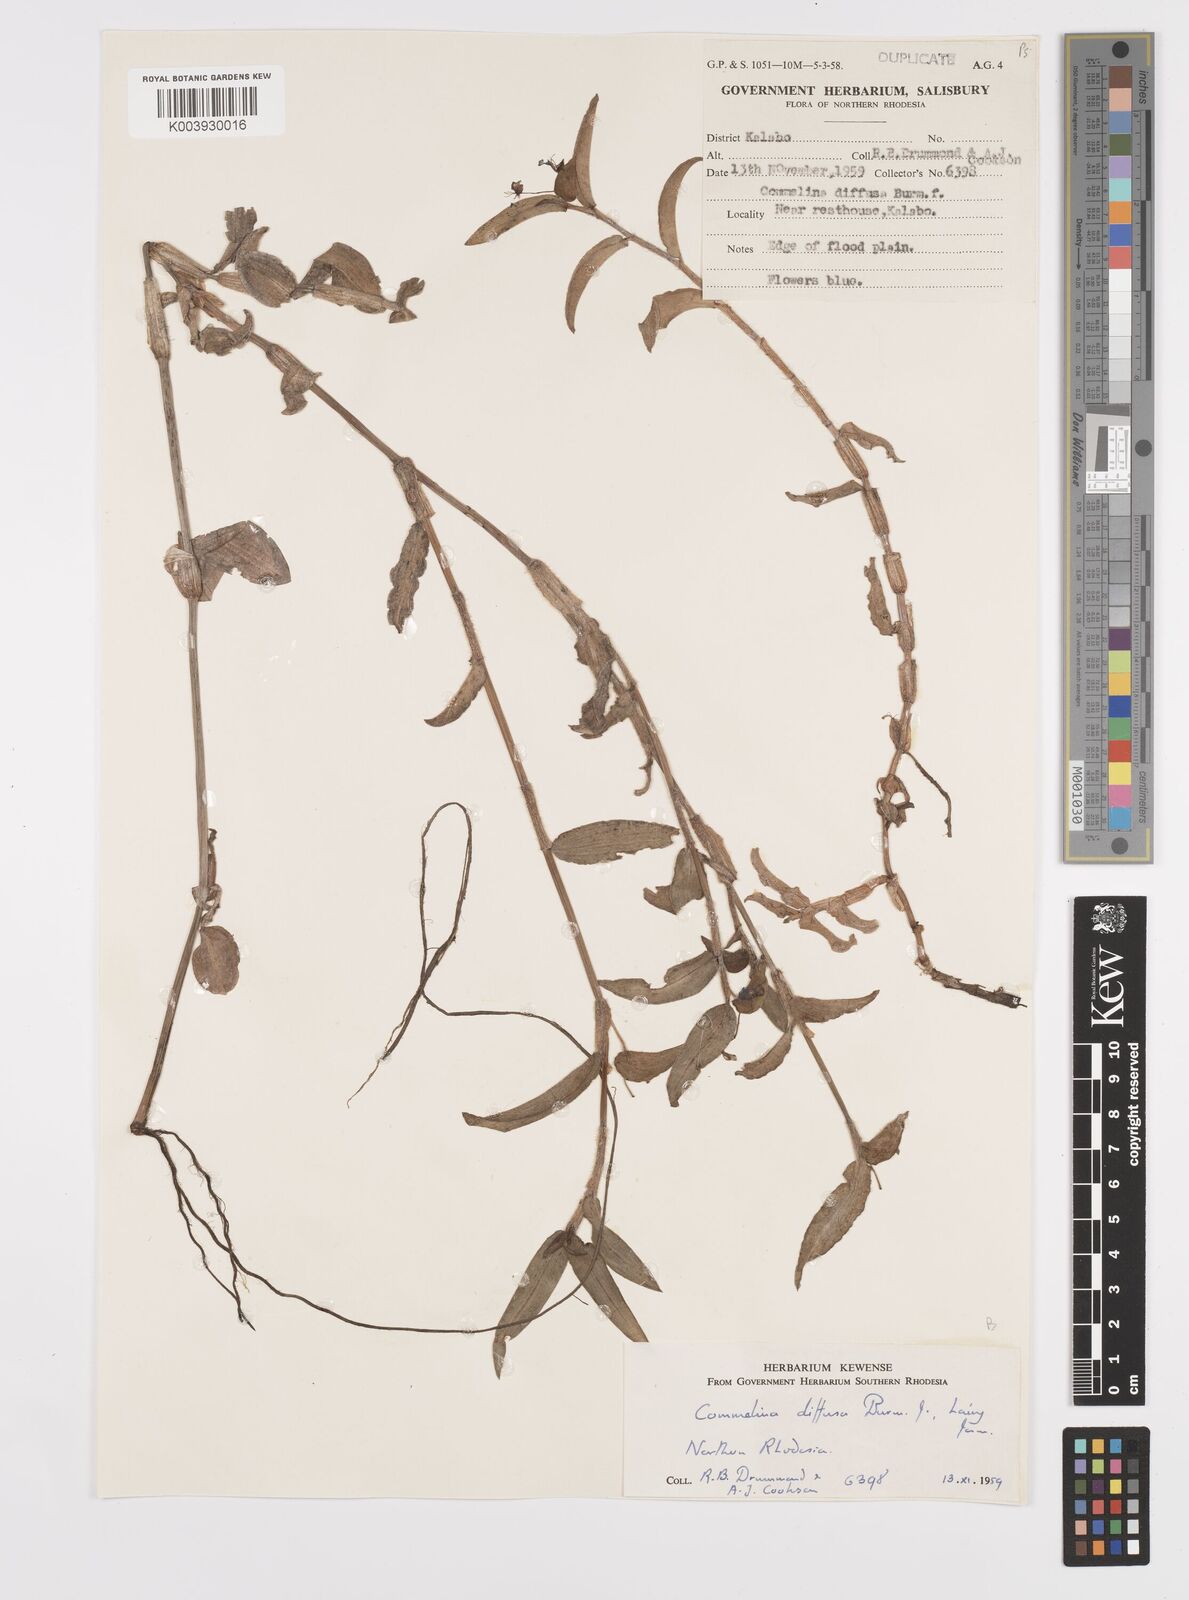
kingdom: Plantae
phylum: Tracheophyta
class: Liliopsida
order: Commelinales
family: Commelinaceae
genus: Commelina
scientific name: Commelina diffusa
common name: Climbing dayflower
